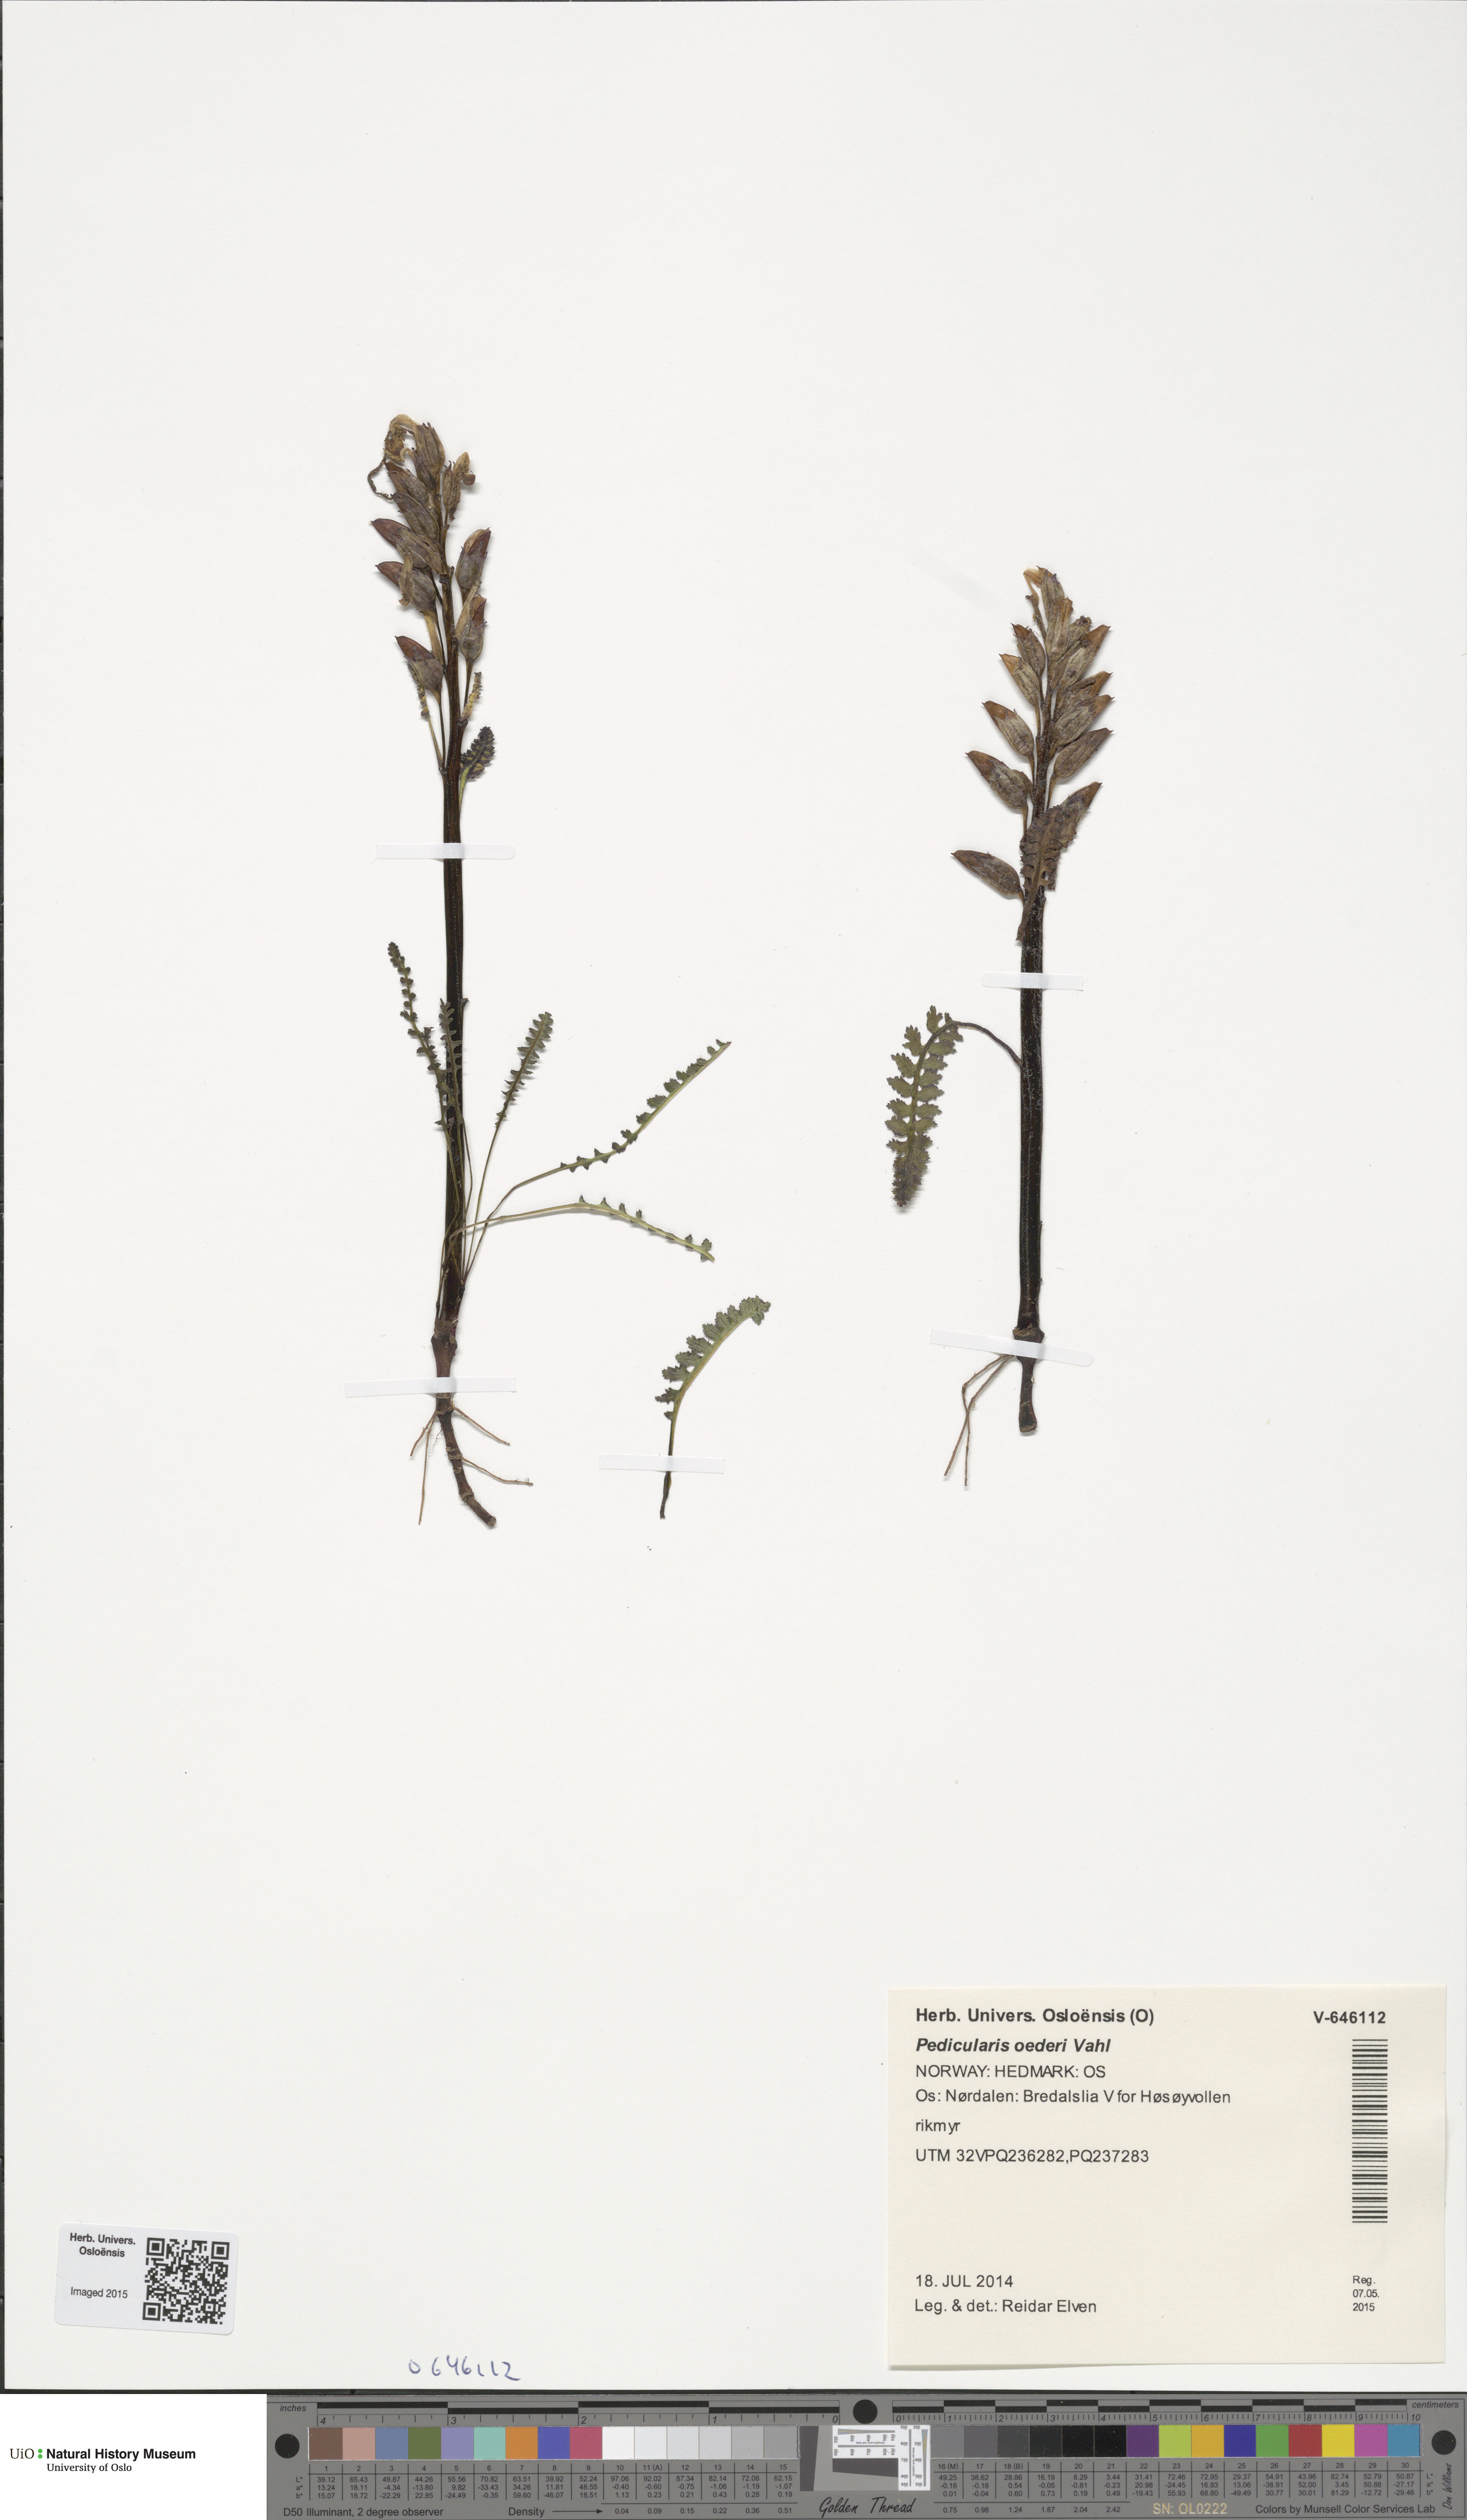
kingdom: Plantae
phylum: Tracheophyta
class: Magnoliopsida
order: Lamiales
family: Orobanchaceae
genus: Pedicularis
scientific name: Pedicularis oederi
